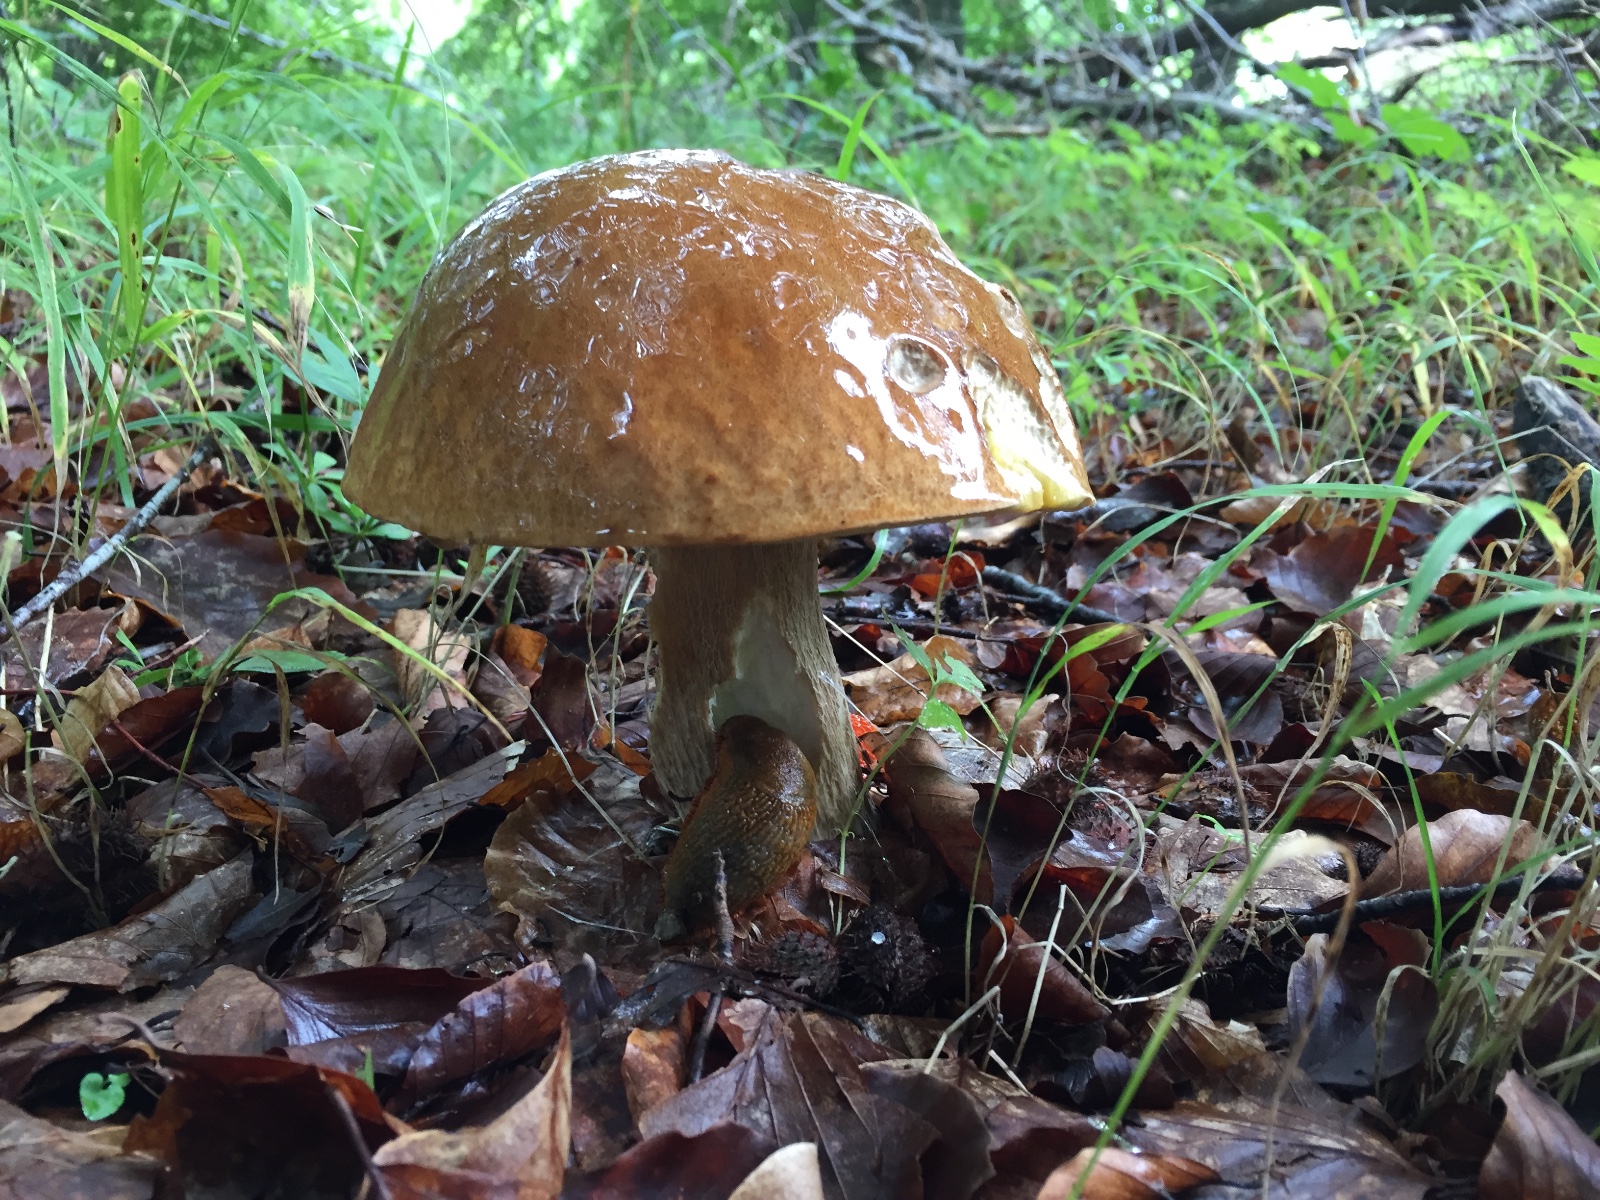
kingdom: Fungi
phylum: Basidiomycota
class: Agaricomycetes
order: Boletales
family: Boletaceae
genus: Boletus
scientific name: Boletus reticulatus
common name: sommer-rørhat
